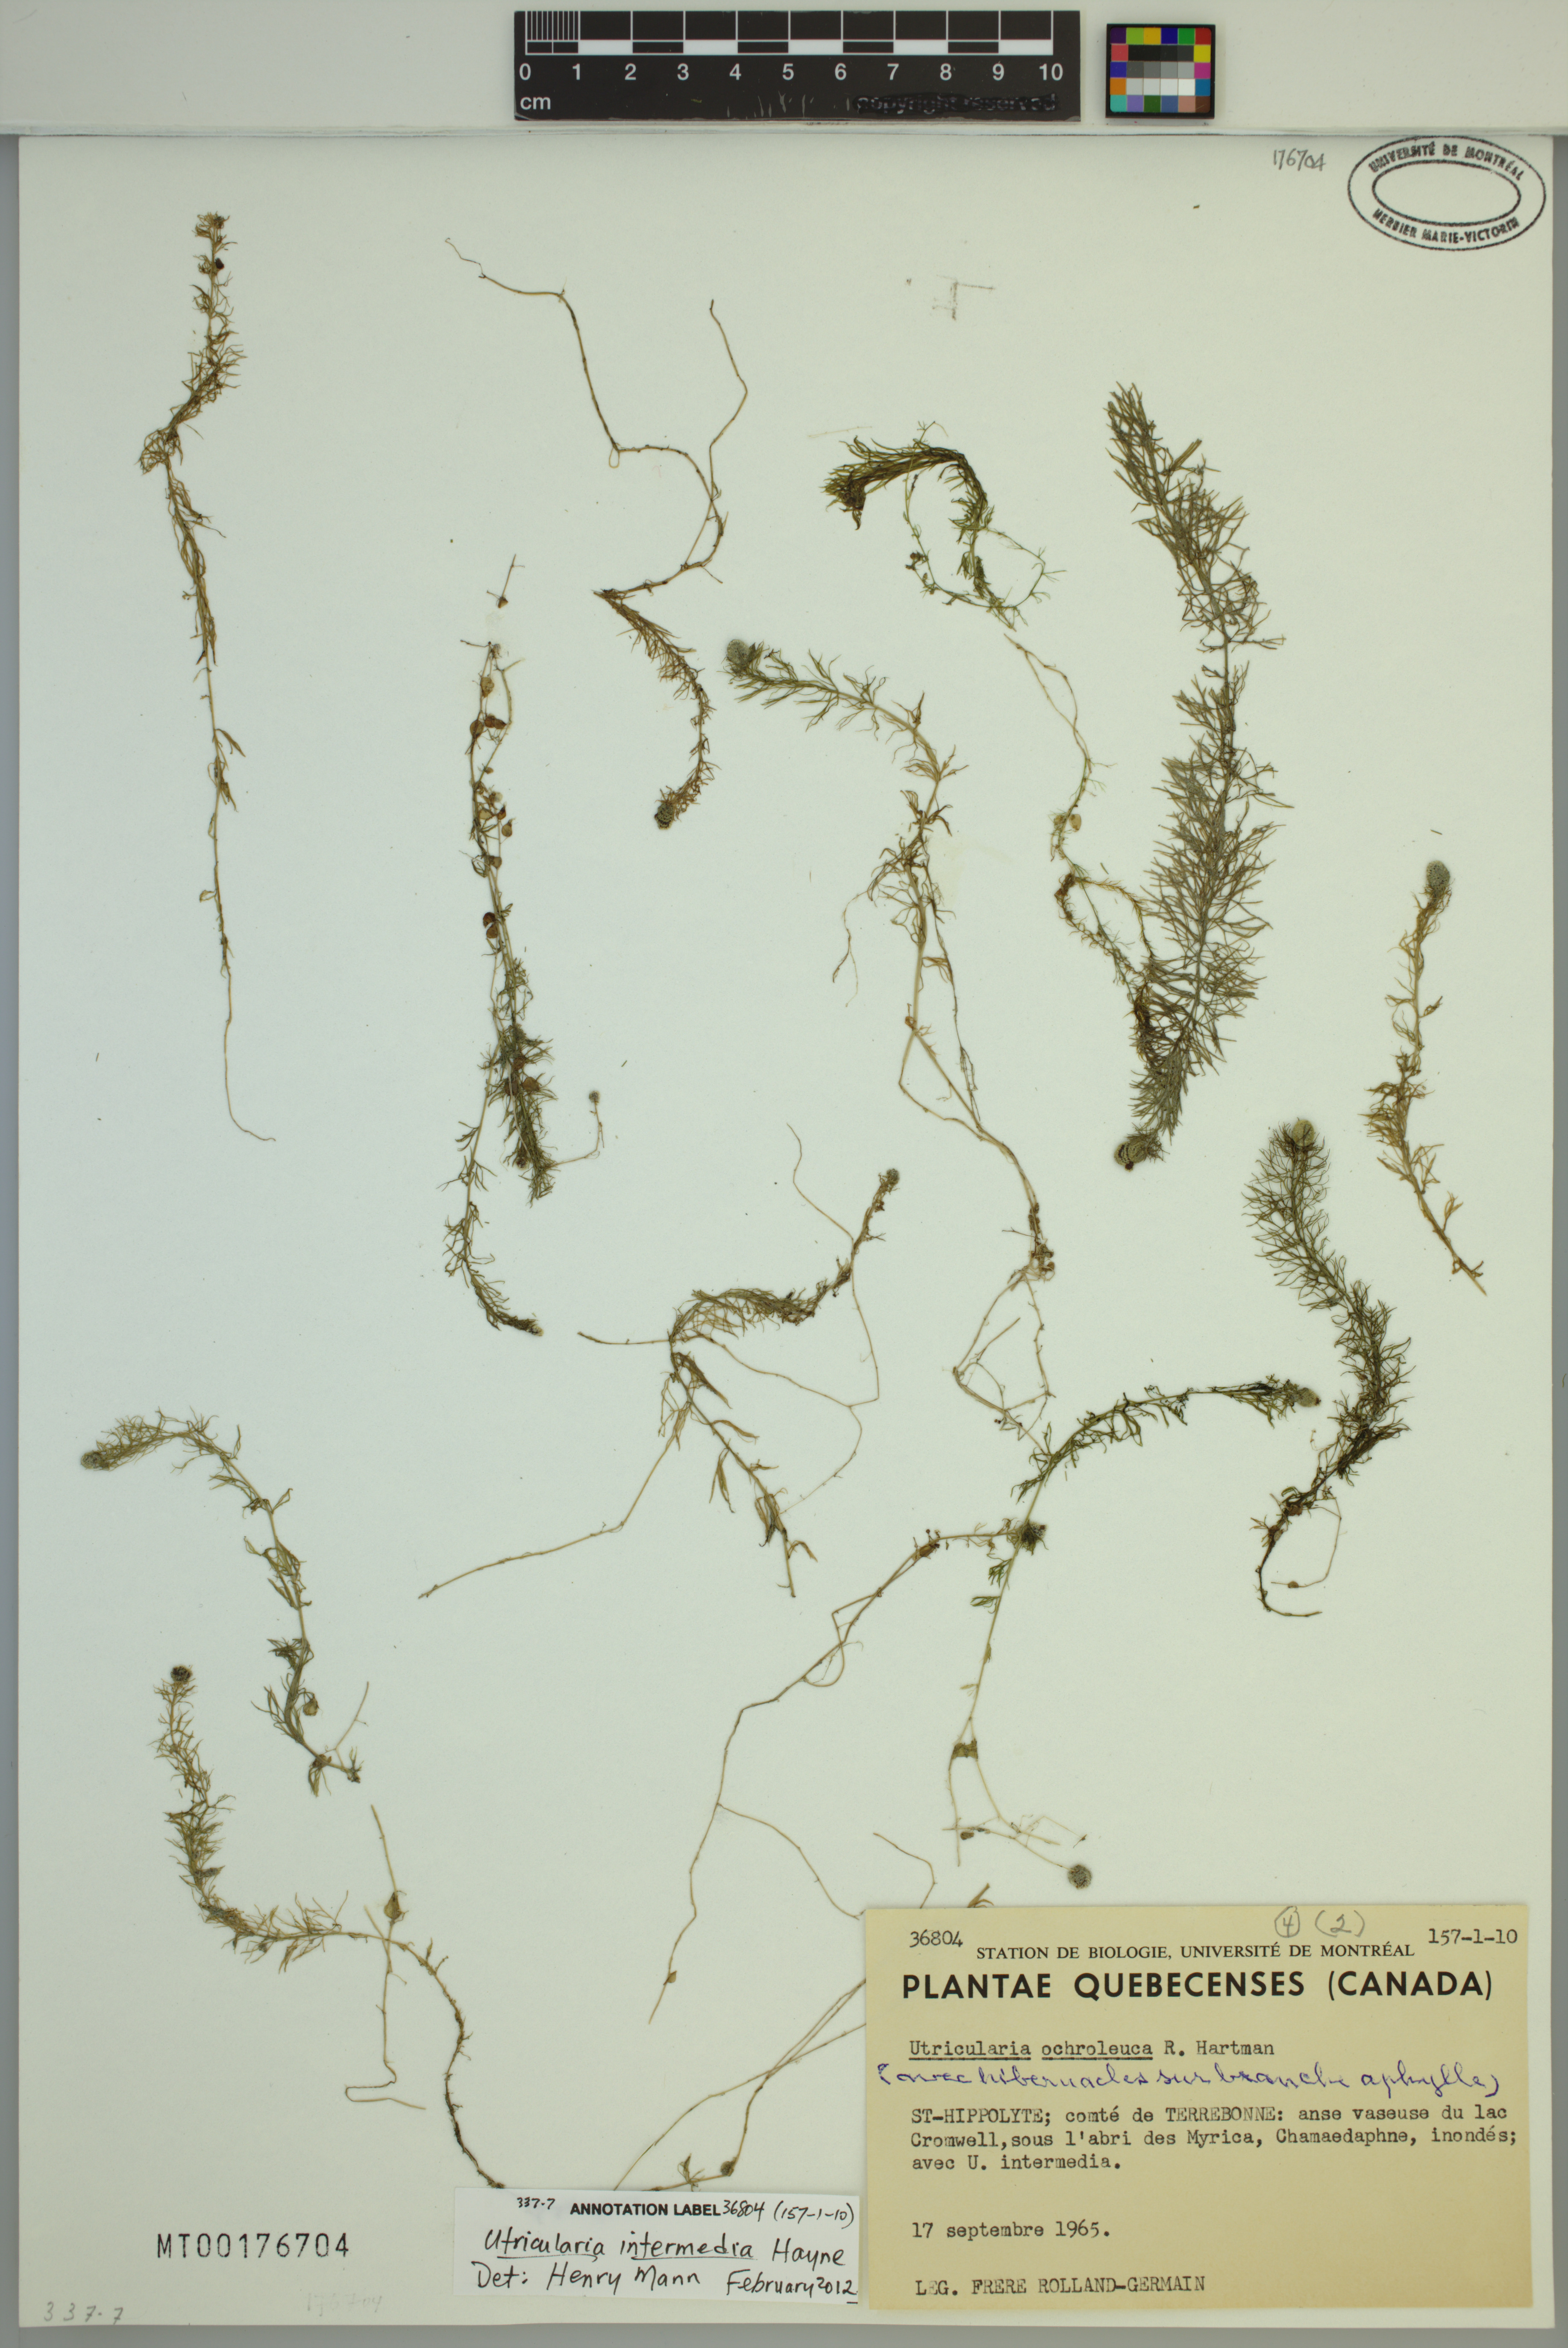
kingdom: Plantae
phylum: Tracheophyta
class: Magnoliopsida
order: Lamiales
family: Lentibulariaceae
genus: Utricularia
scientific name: Utricularia intermedia
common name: Intermediate bladderwort
